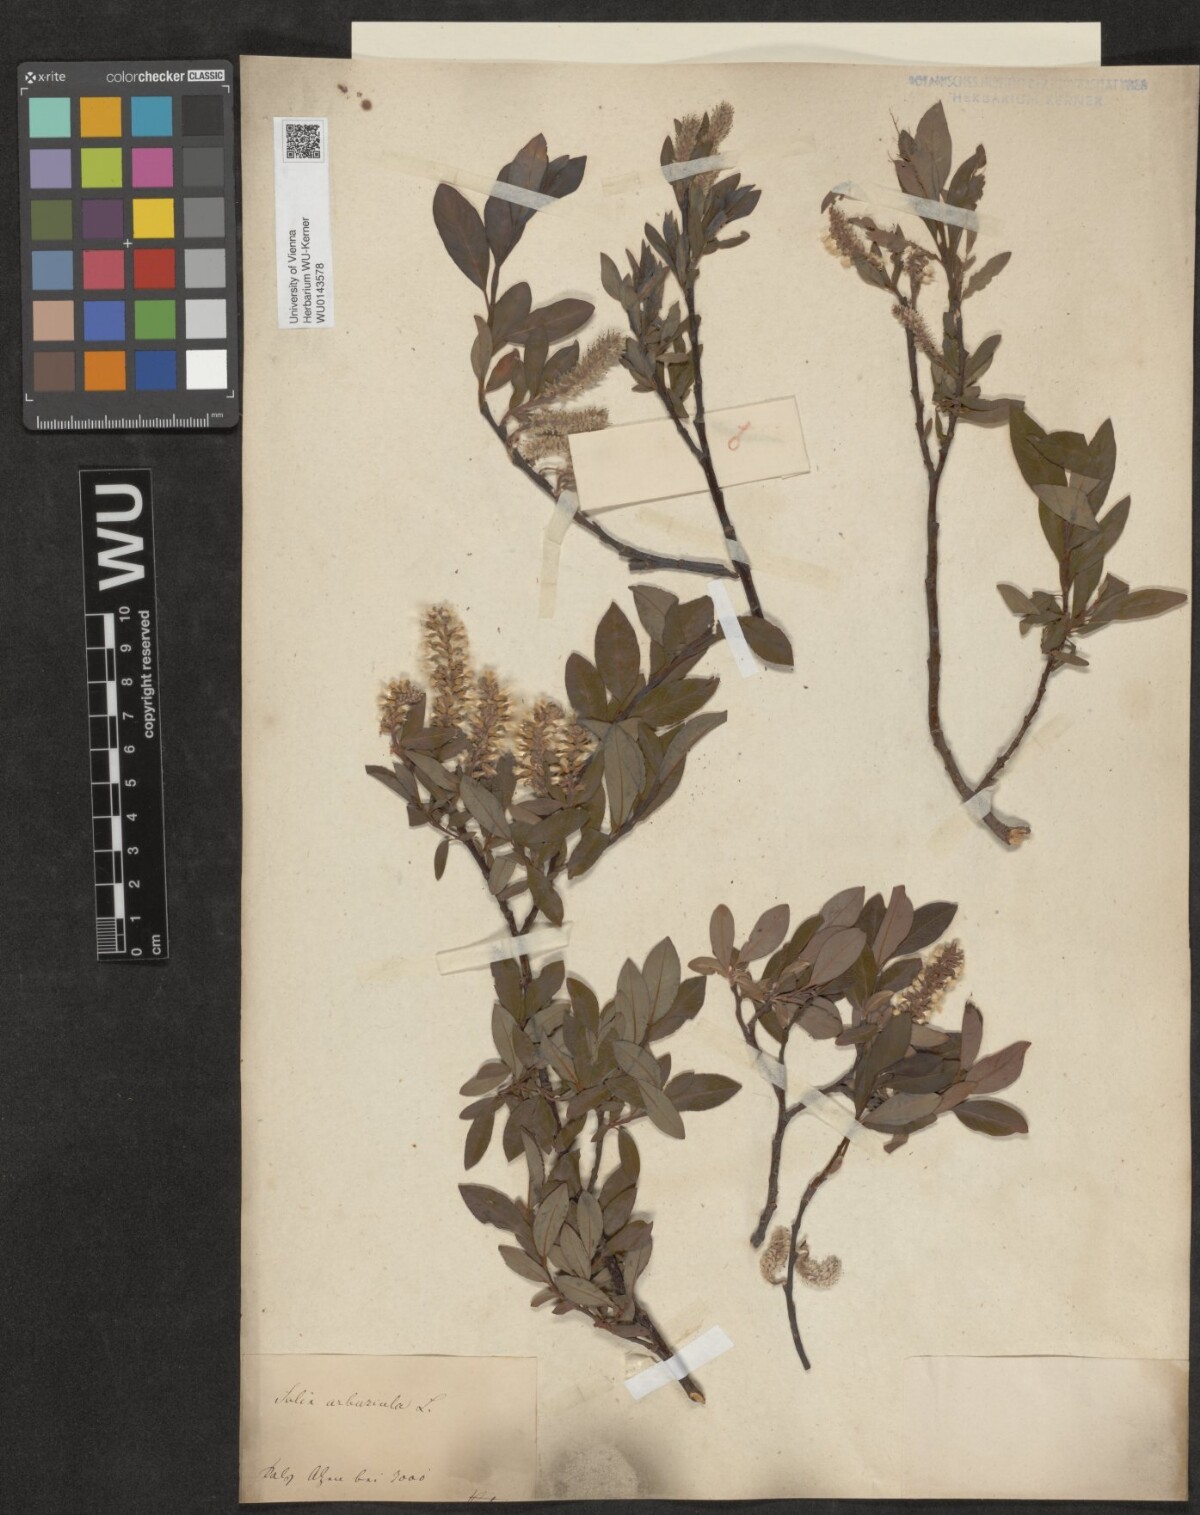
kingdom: Plantae
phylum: Tracheophyta
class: Magnoliopsida
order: Malpighiales
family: Salicaceae
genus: Salix
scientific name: Salix waldsteiniana
